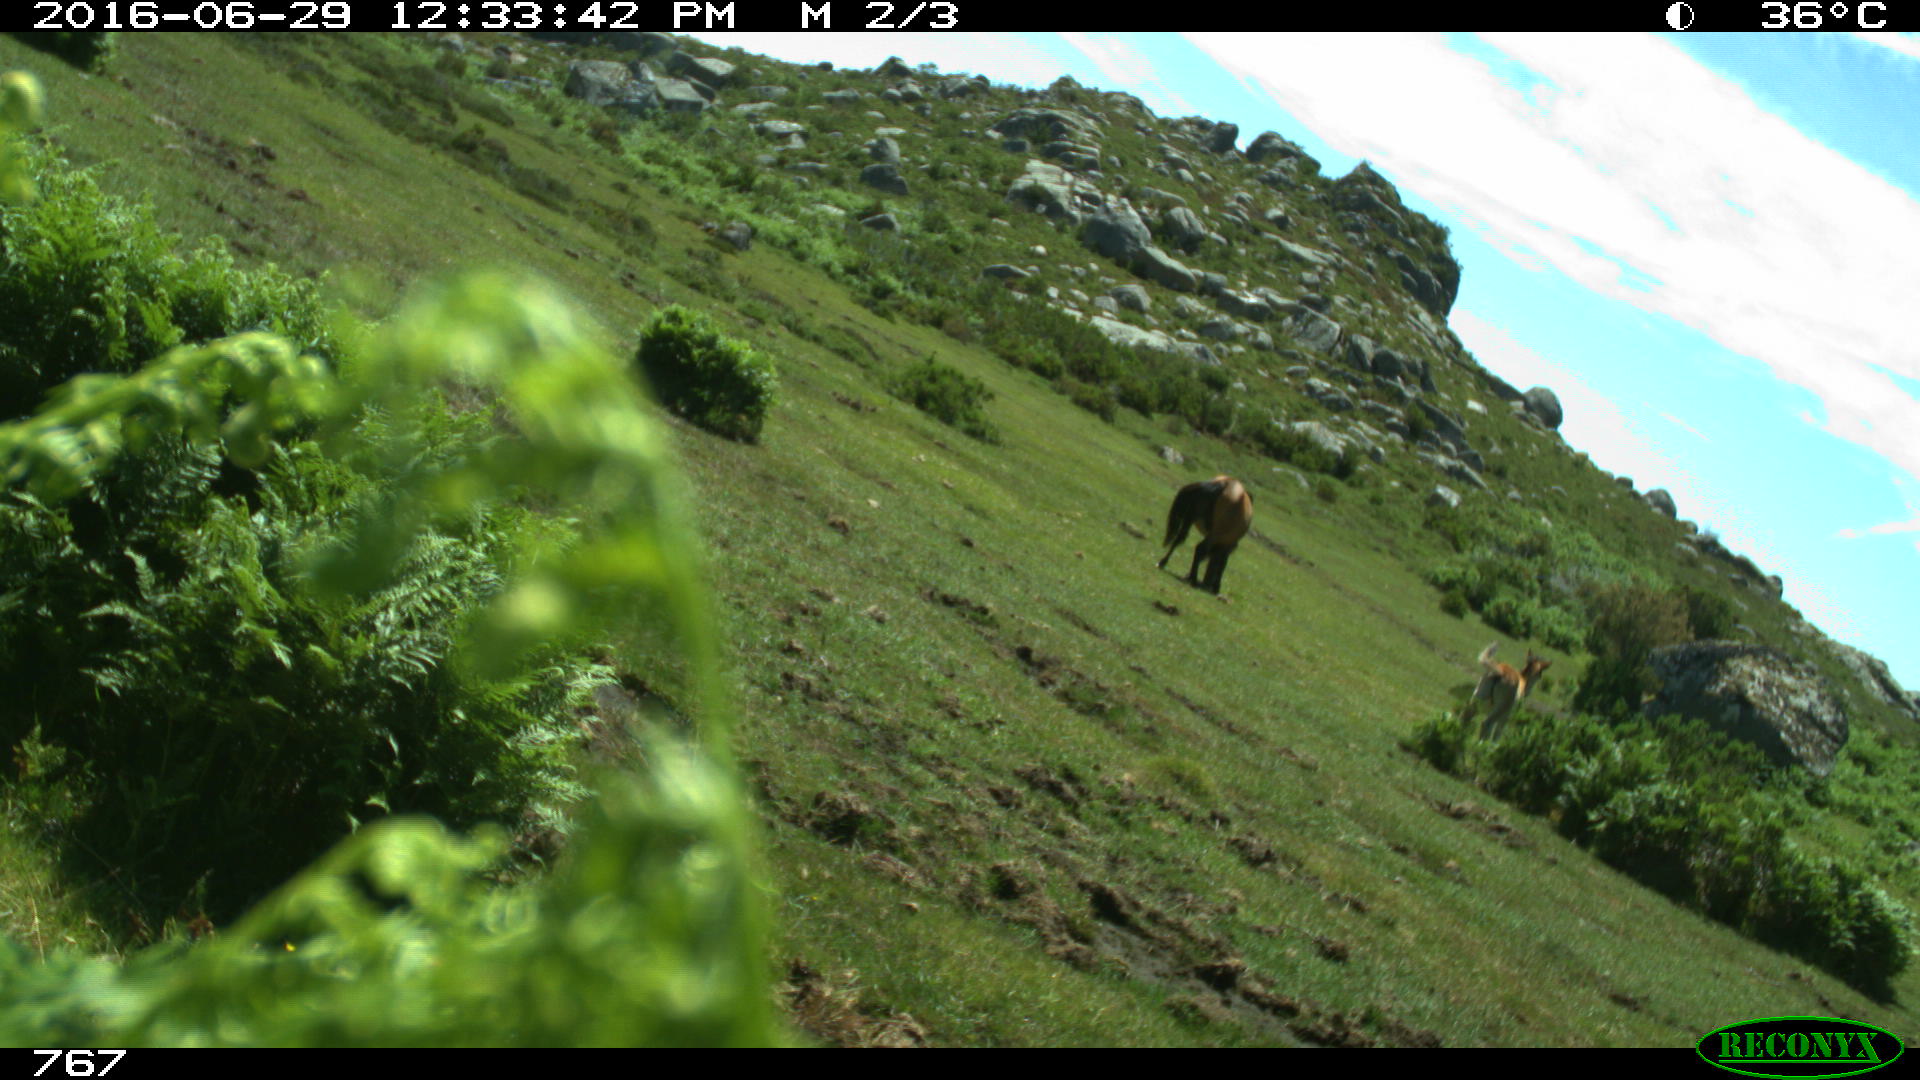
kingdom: Animalia
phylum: Chordata
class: Mammalia
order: Perissodactyla
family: Equidae
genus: Equus
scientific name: Equus caballus
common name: Horse
